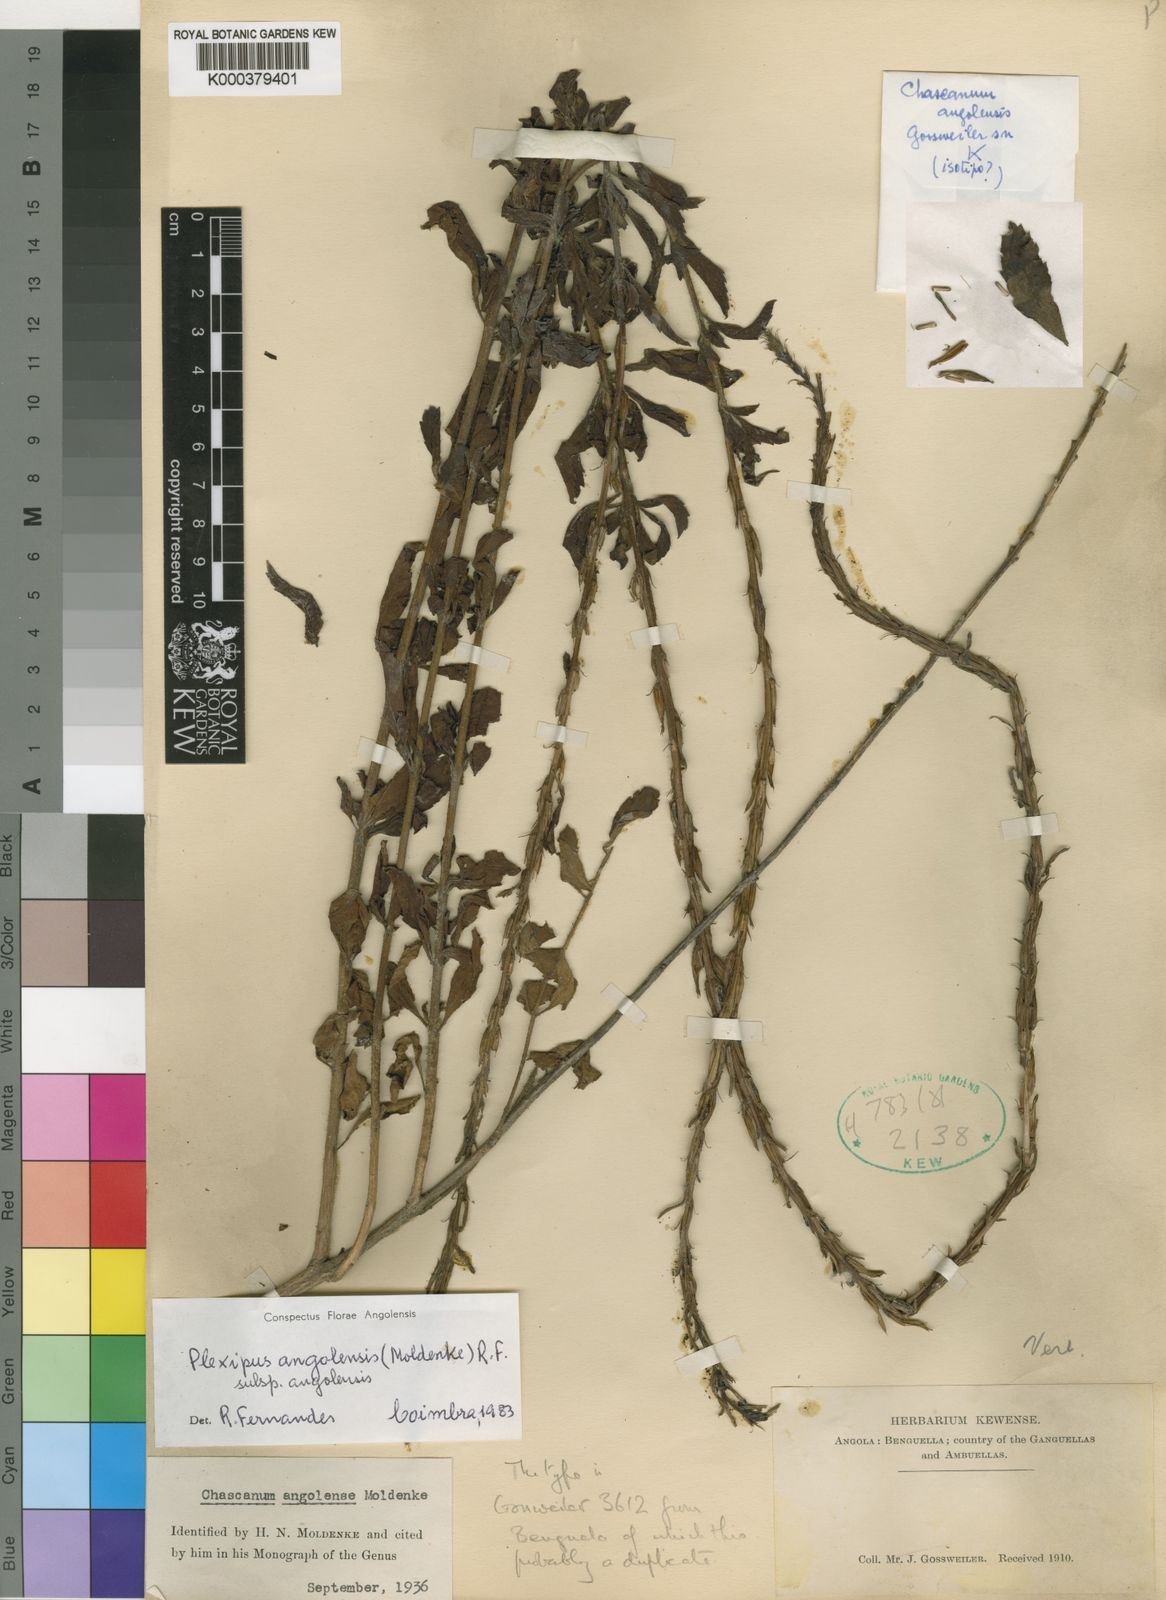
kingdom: Plantae
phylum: Tracheophyta
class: Magnoliopsida
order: Lamiales
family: Verbenaceae
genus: Chascanum
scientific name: Chascanum angolense
